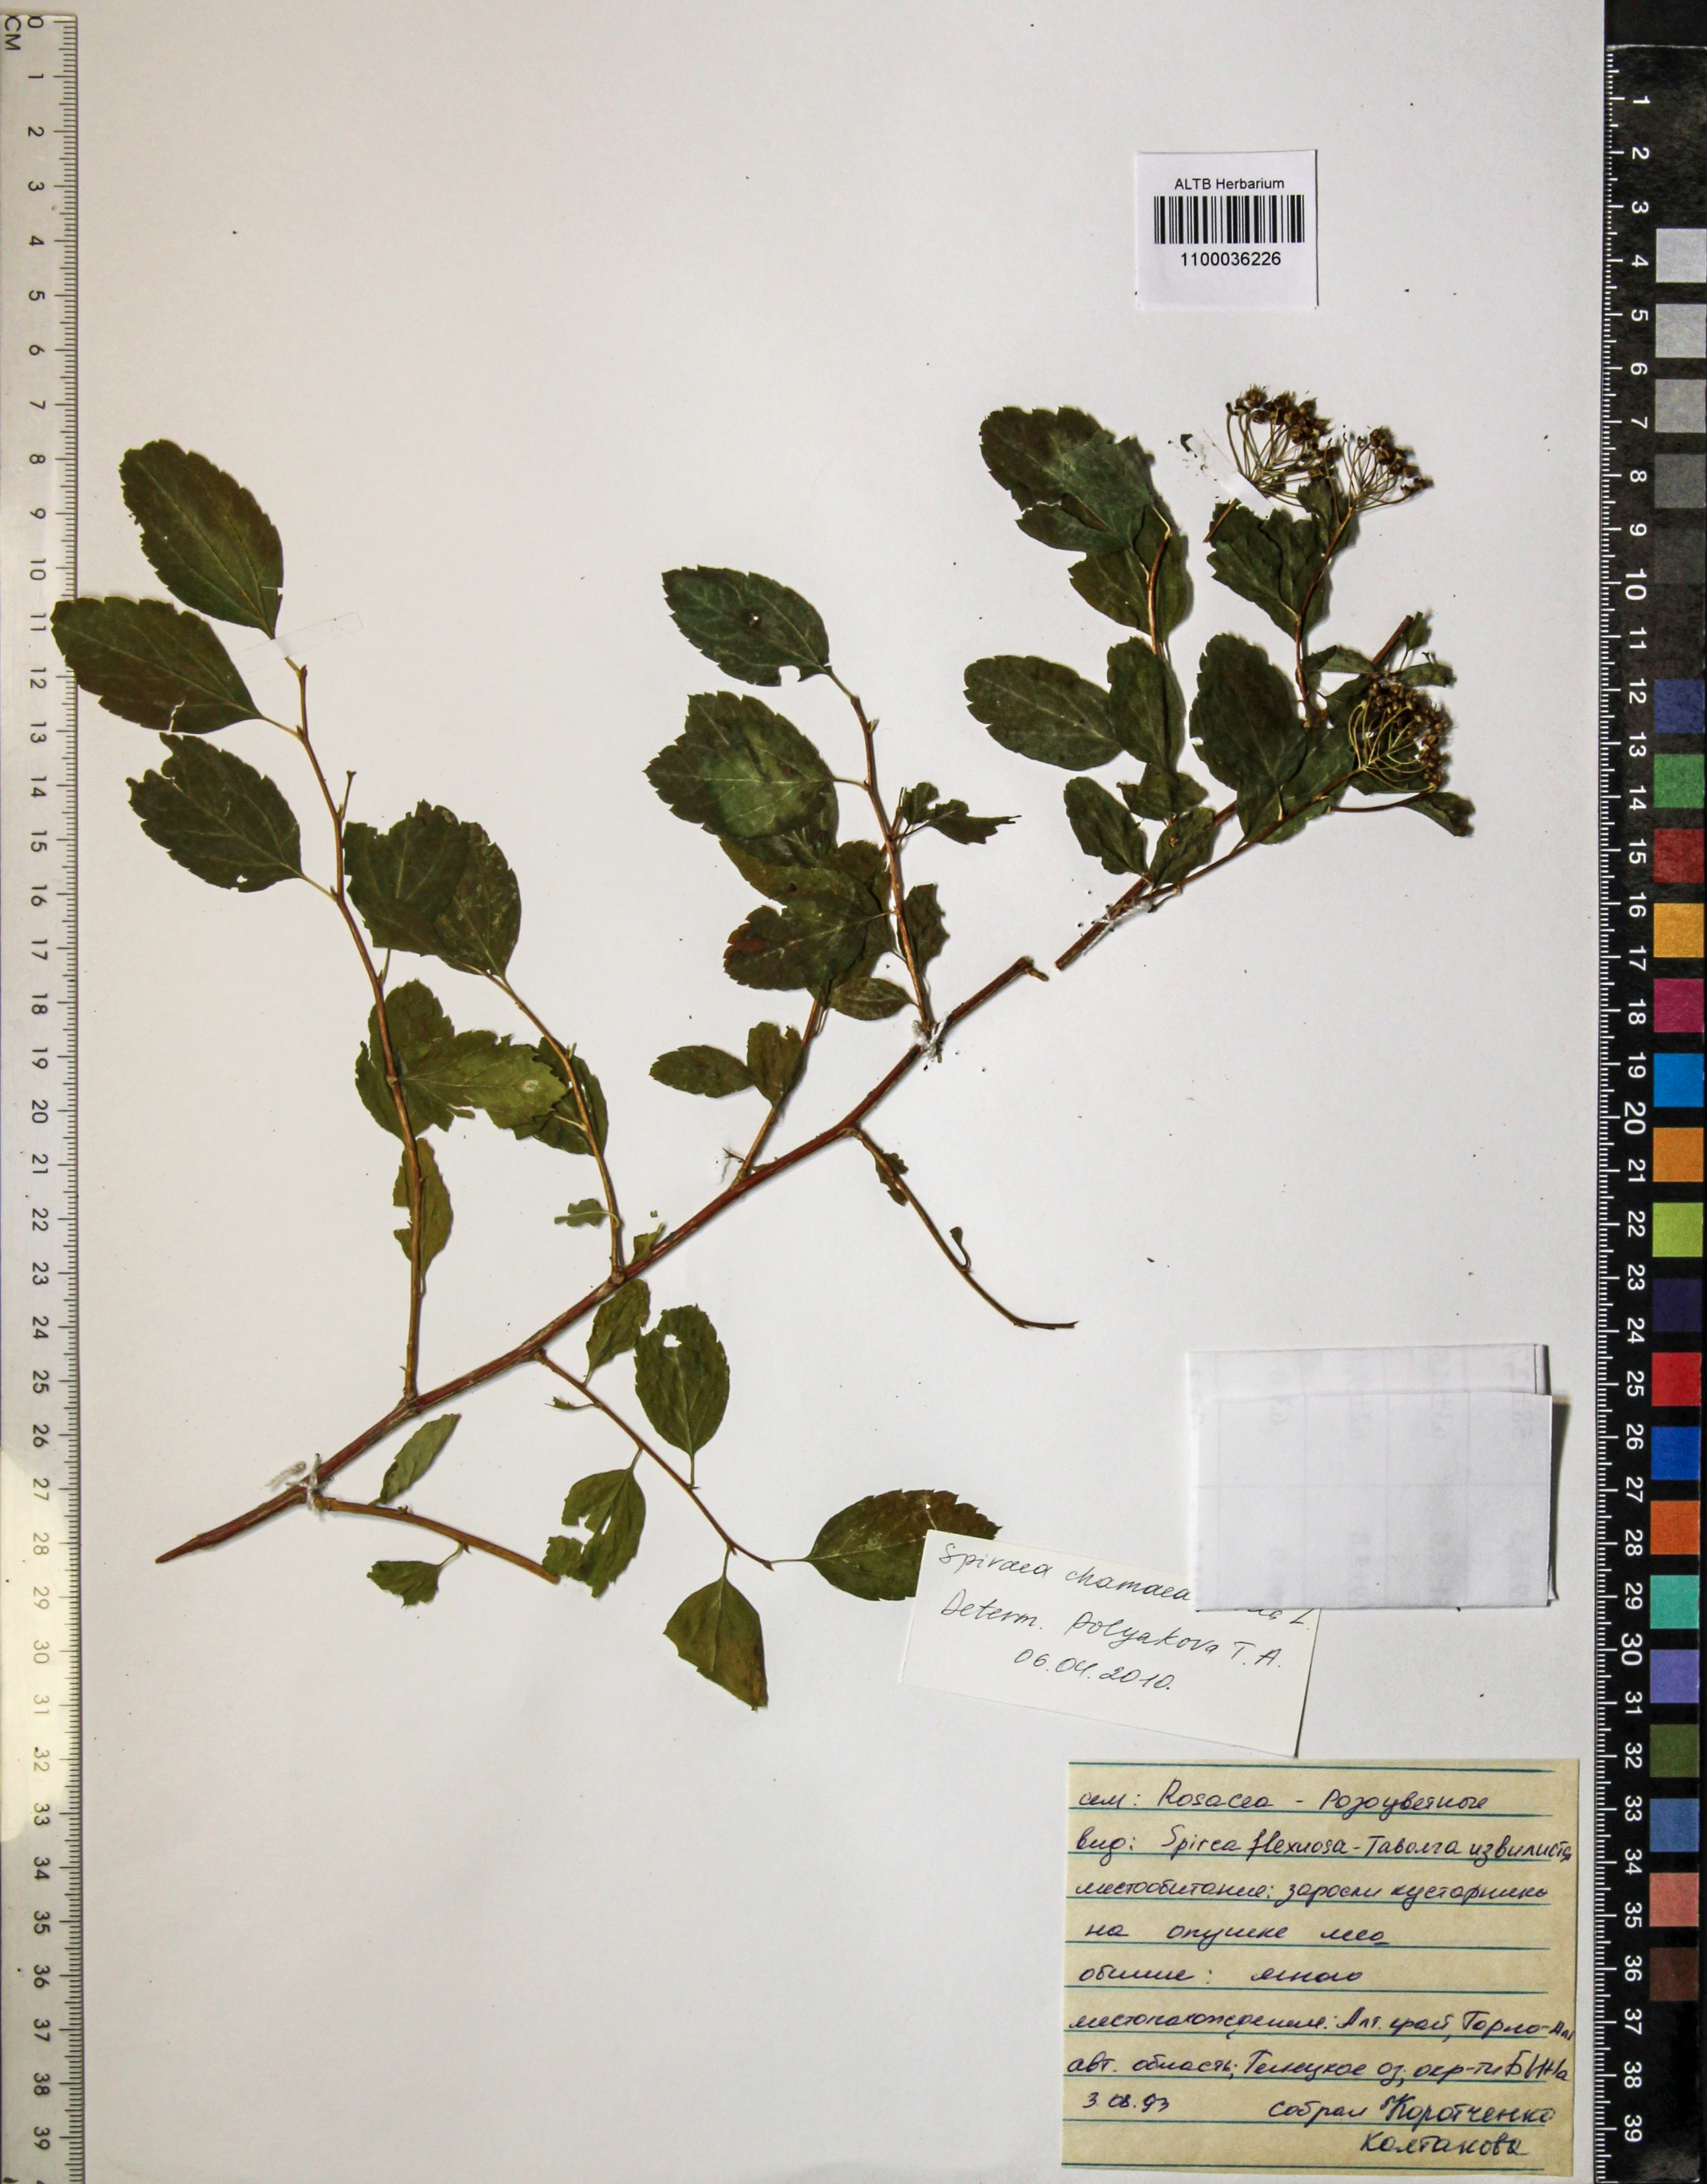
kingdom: Plantae
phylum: Tracheophyta
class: Magnoliopsida
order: Rosales
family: Rosaceae
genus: Spiraea
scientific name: Spiraea chamaedryfolia
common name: Elm-leaved spiraea
